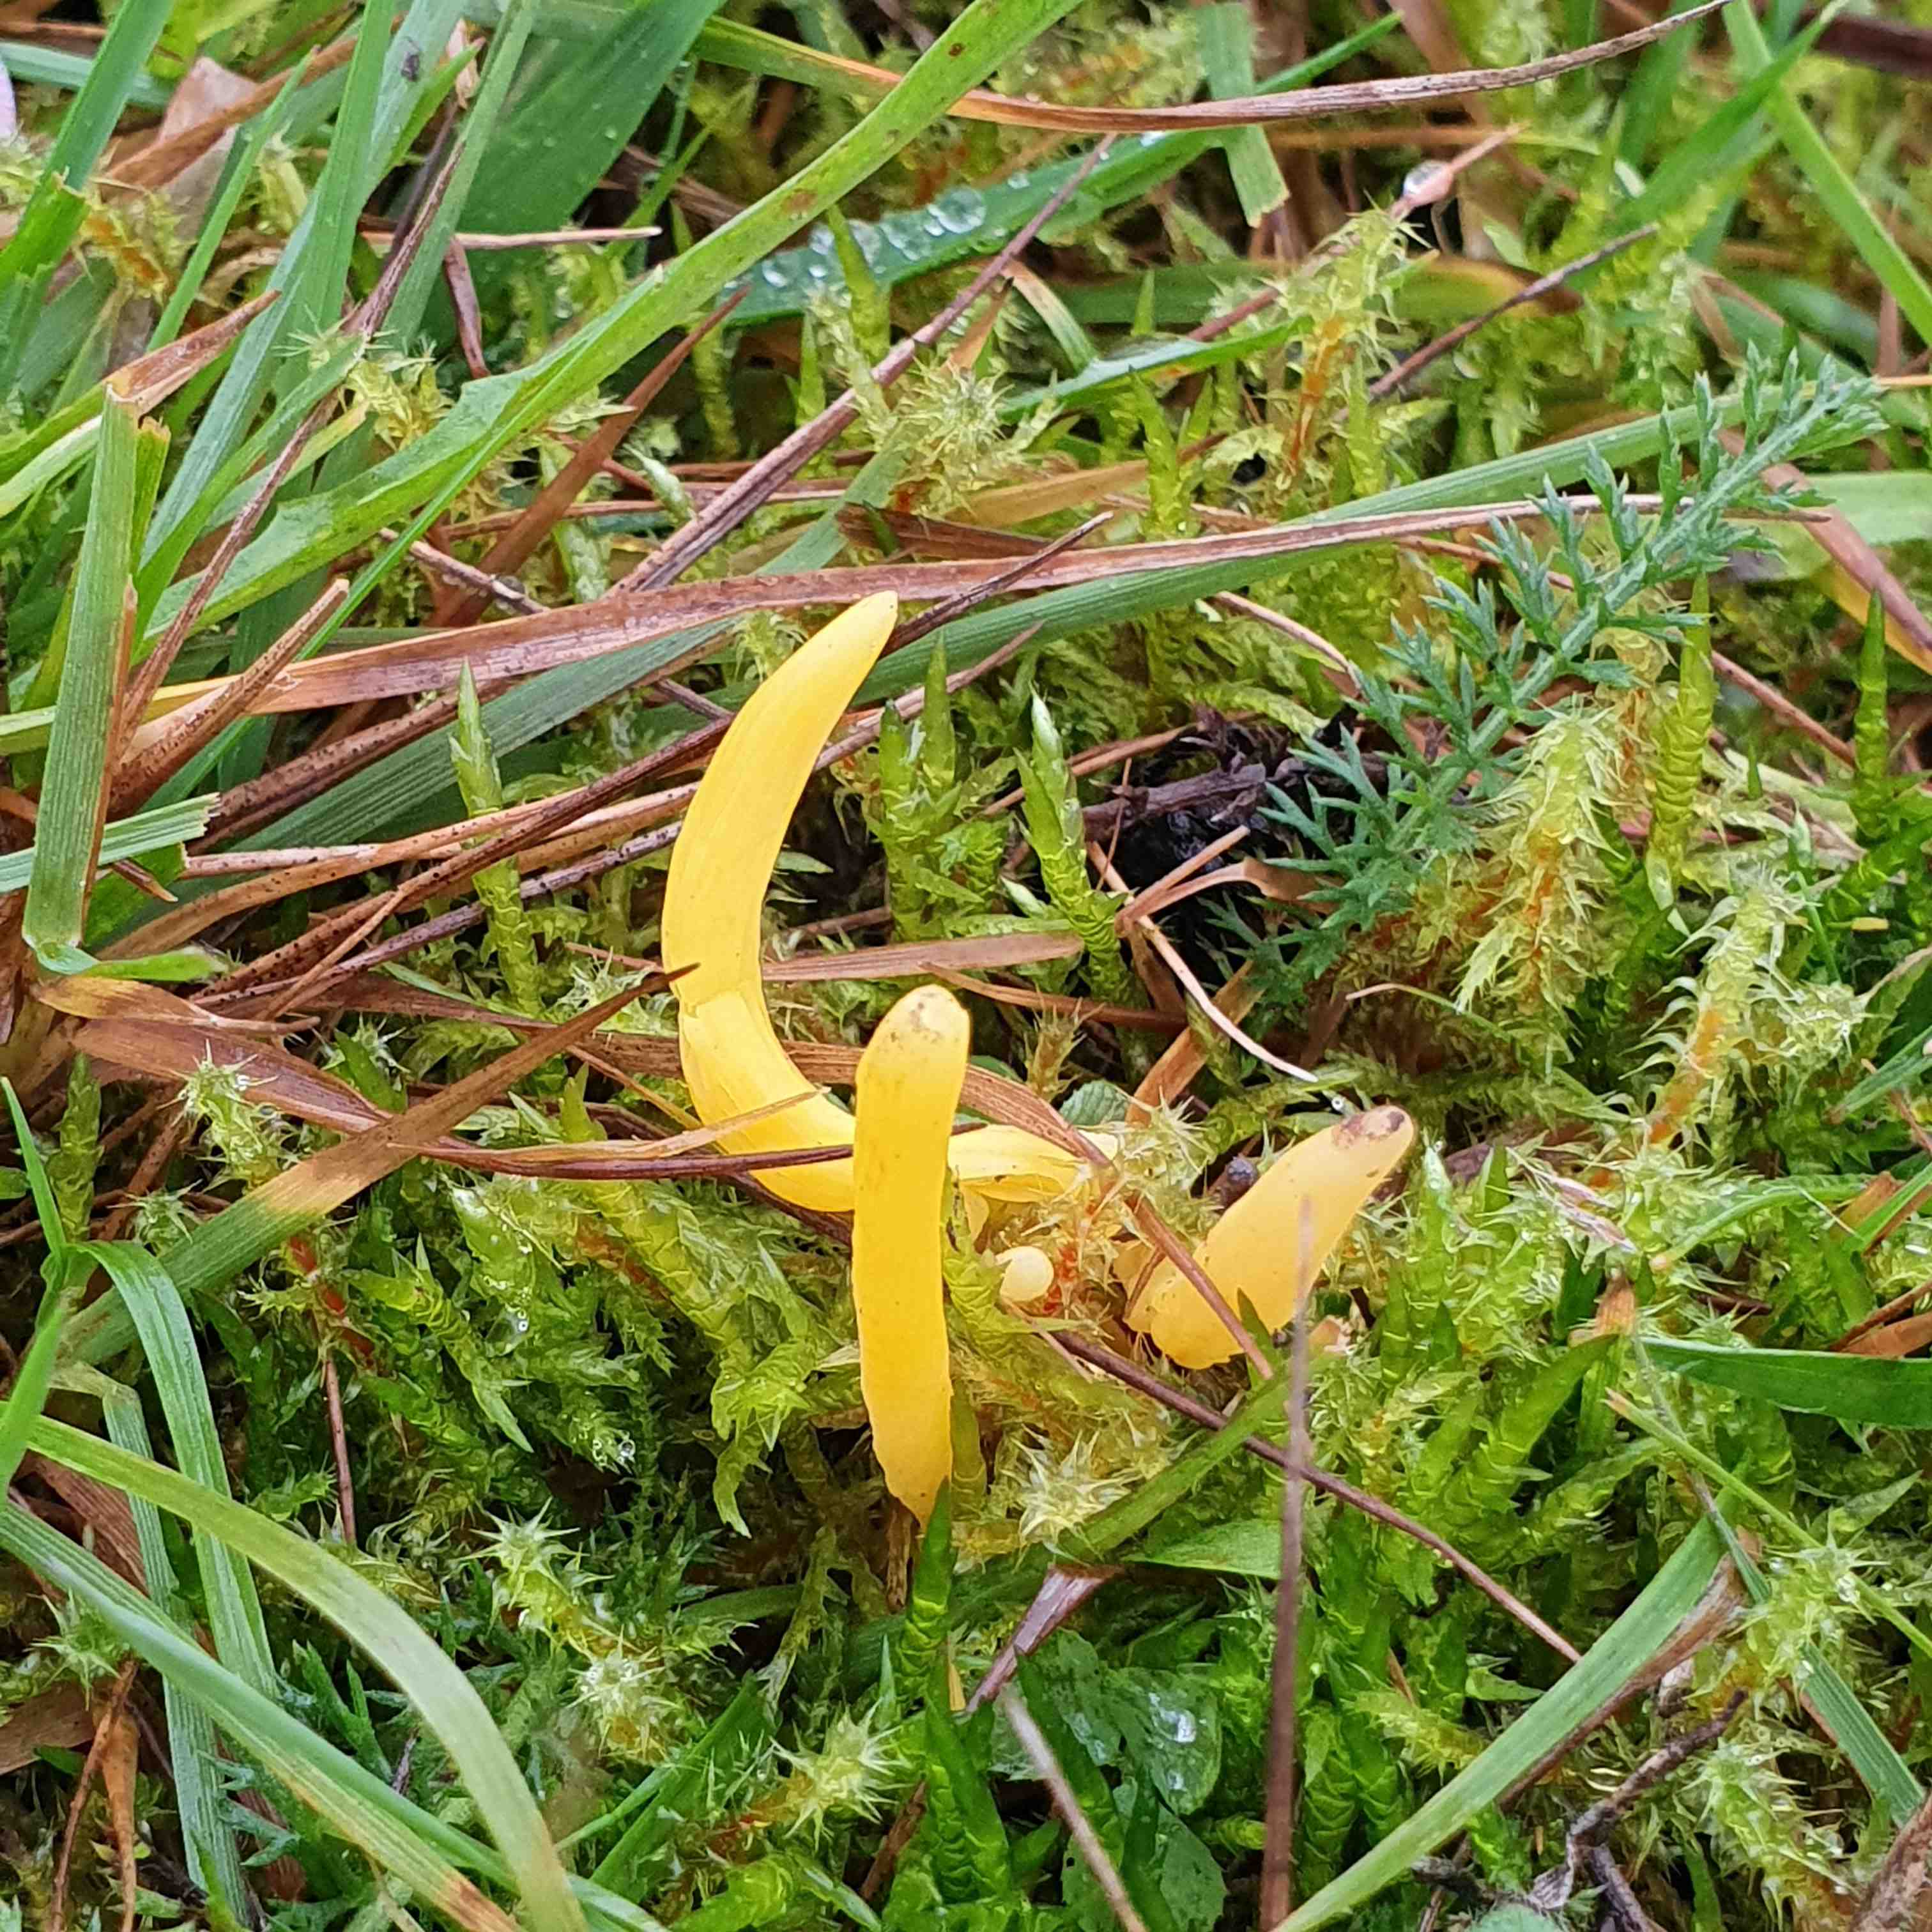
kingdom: Fungi
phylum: Basidiomycota
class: Agaricomycetes
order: Agaricales
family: Clavariaceae
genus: Clavulinopsis
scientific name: Clavulinopsis
